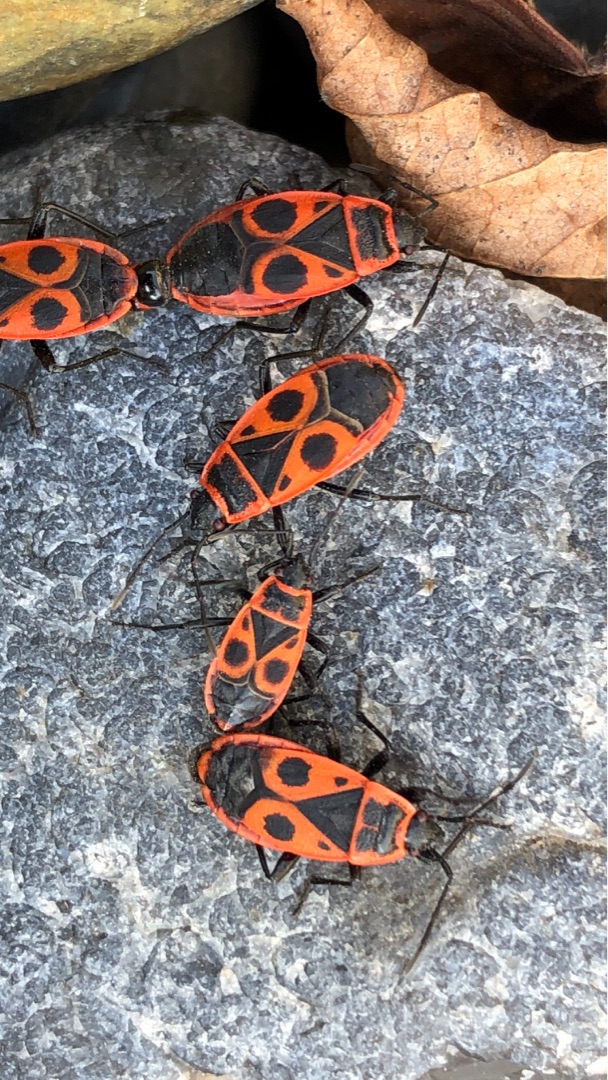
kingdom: Animalia
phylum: Arthropoda
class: Insecta
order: Hemiptera
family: Pyrrhocoridae
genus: Pyrrhocoris
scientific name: Pyrrhocoris apterus
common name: Ildtæge
